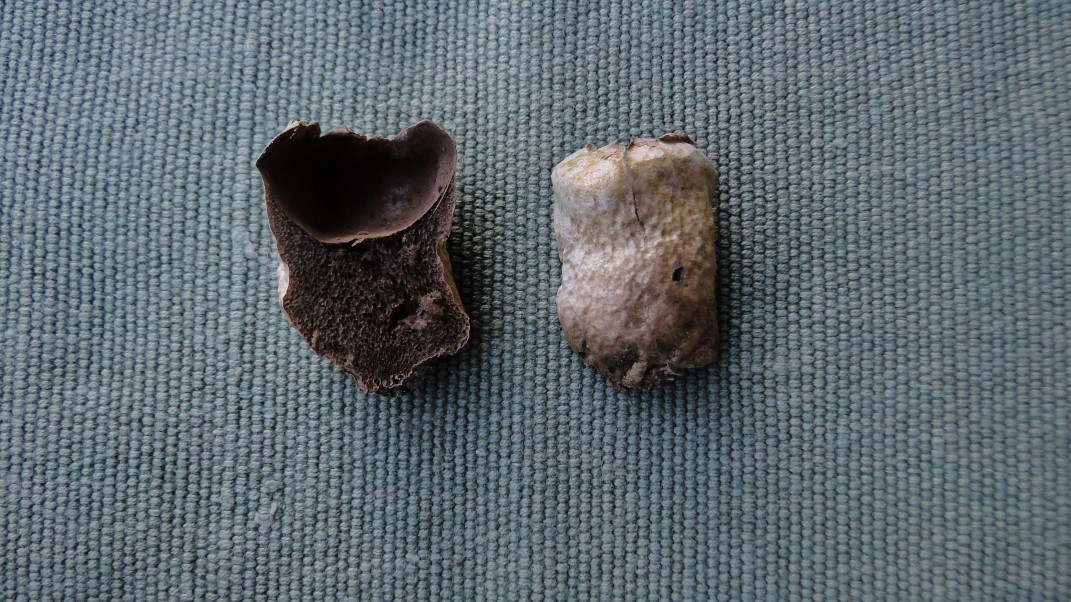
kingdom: Fungi
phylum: Basidiomycota
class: Agaricomycetes
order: Agaricales
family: Lycoperdaceae
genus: Lycoperdon
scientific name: Lycoperdon pratense
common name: flad støvbold
